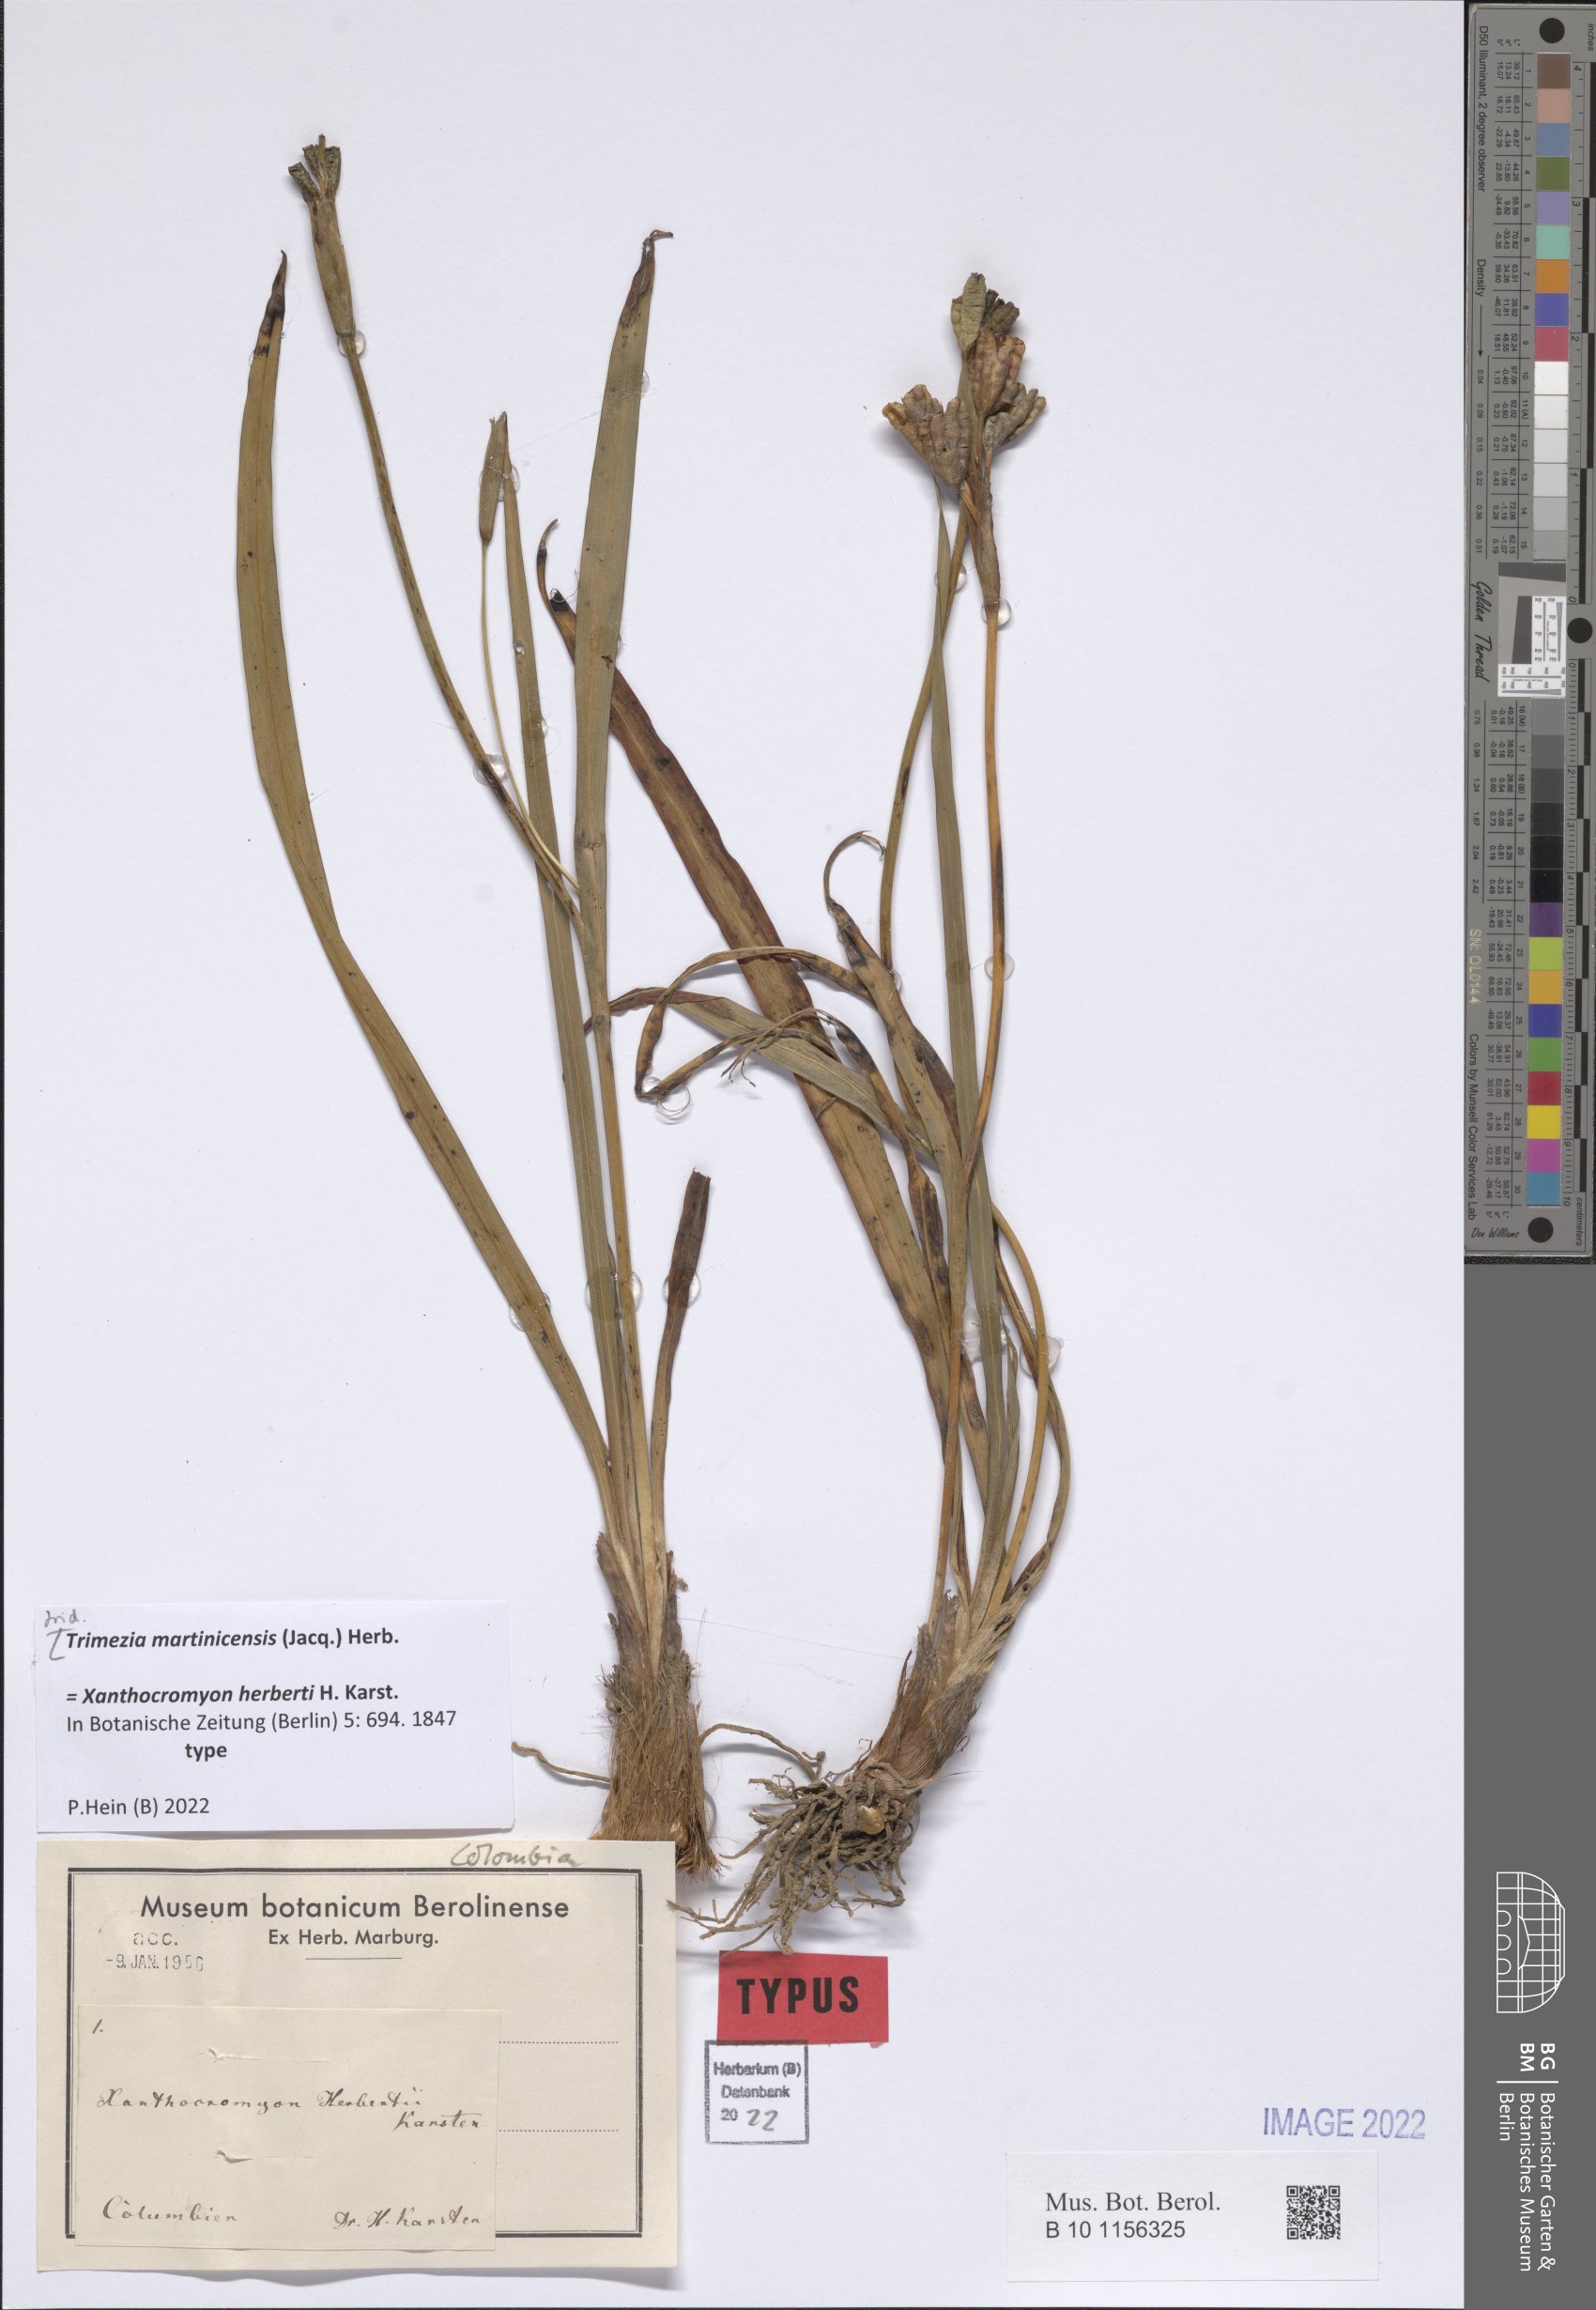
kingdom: Plantae
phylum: Tracheophyta
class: Liliopsida
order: Asparagales
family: Iridaceae
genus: Trimezia
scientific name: Trimezia martinicensis
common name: Martinique trimezia
